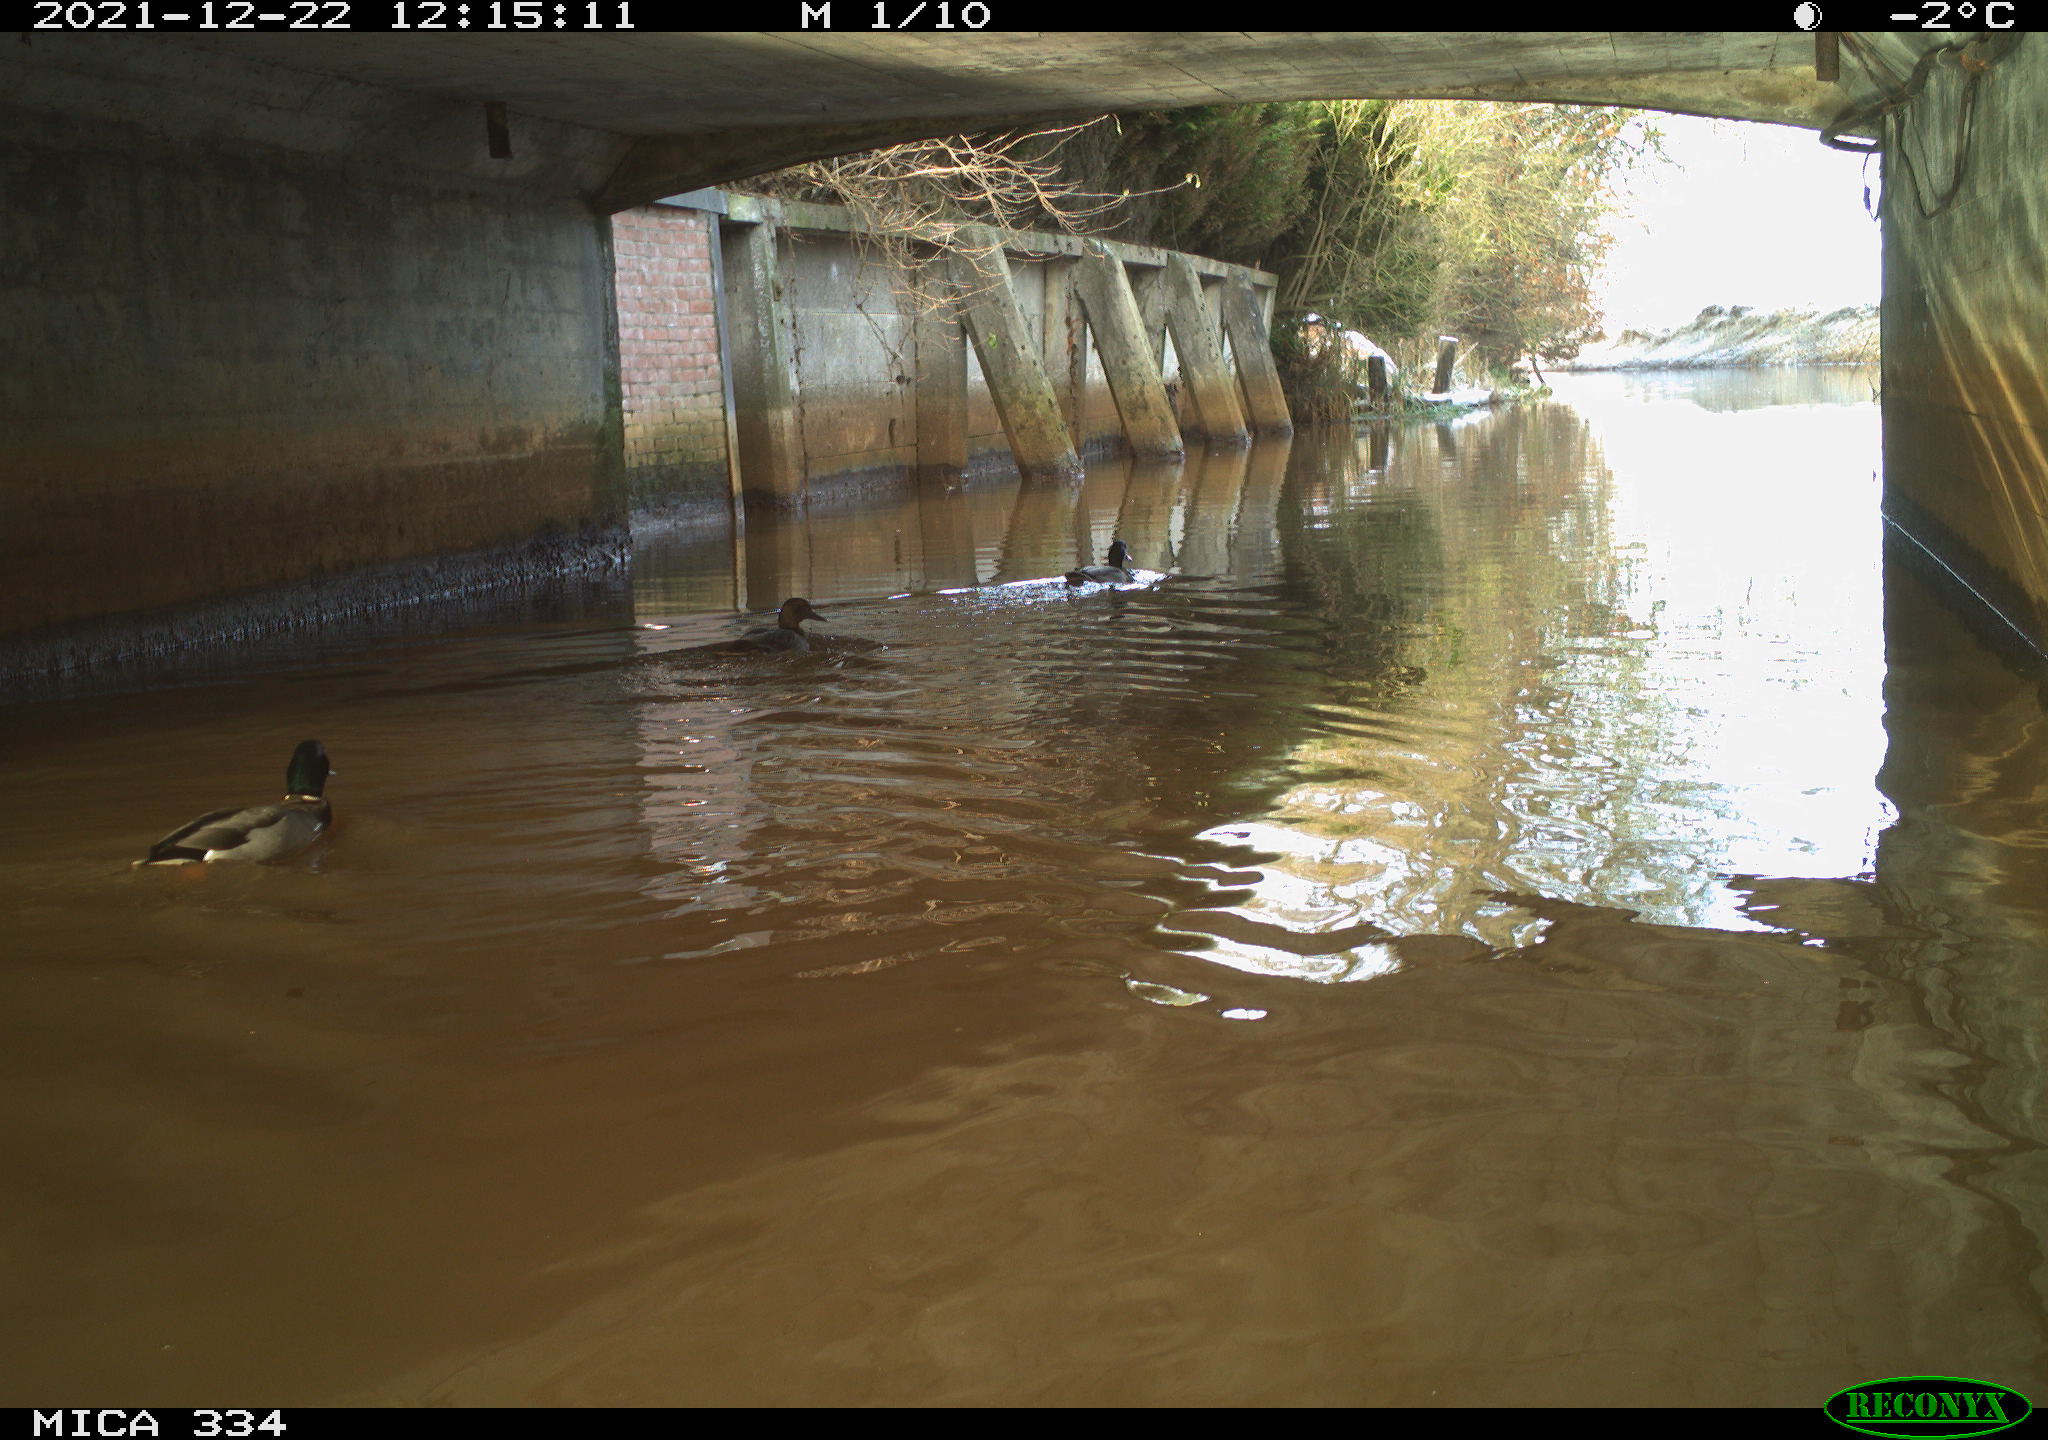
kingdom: Animalia
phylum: Chordata
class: Aves
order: Anseriformes
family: Anatidae
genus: Anas
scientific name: Anas platyrhynchos
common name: Mallard
